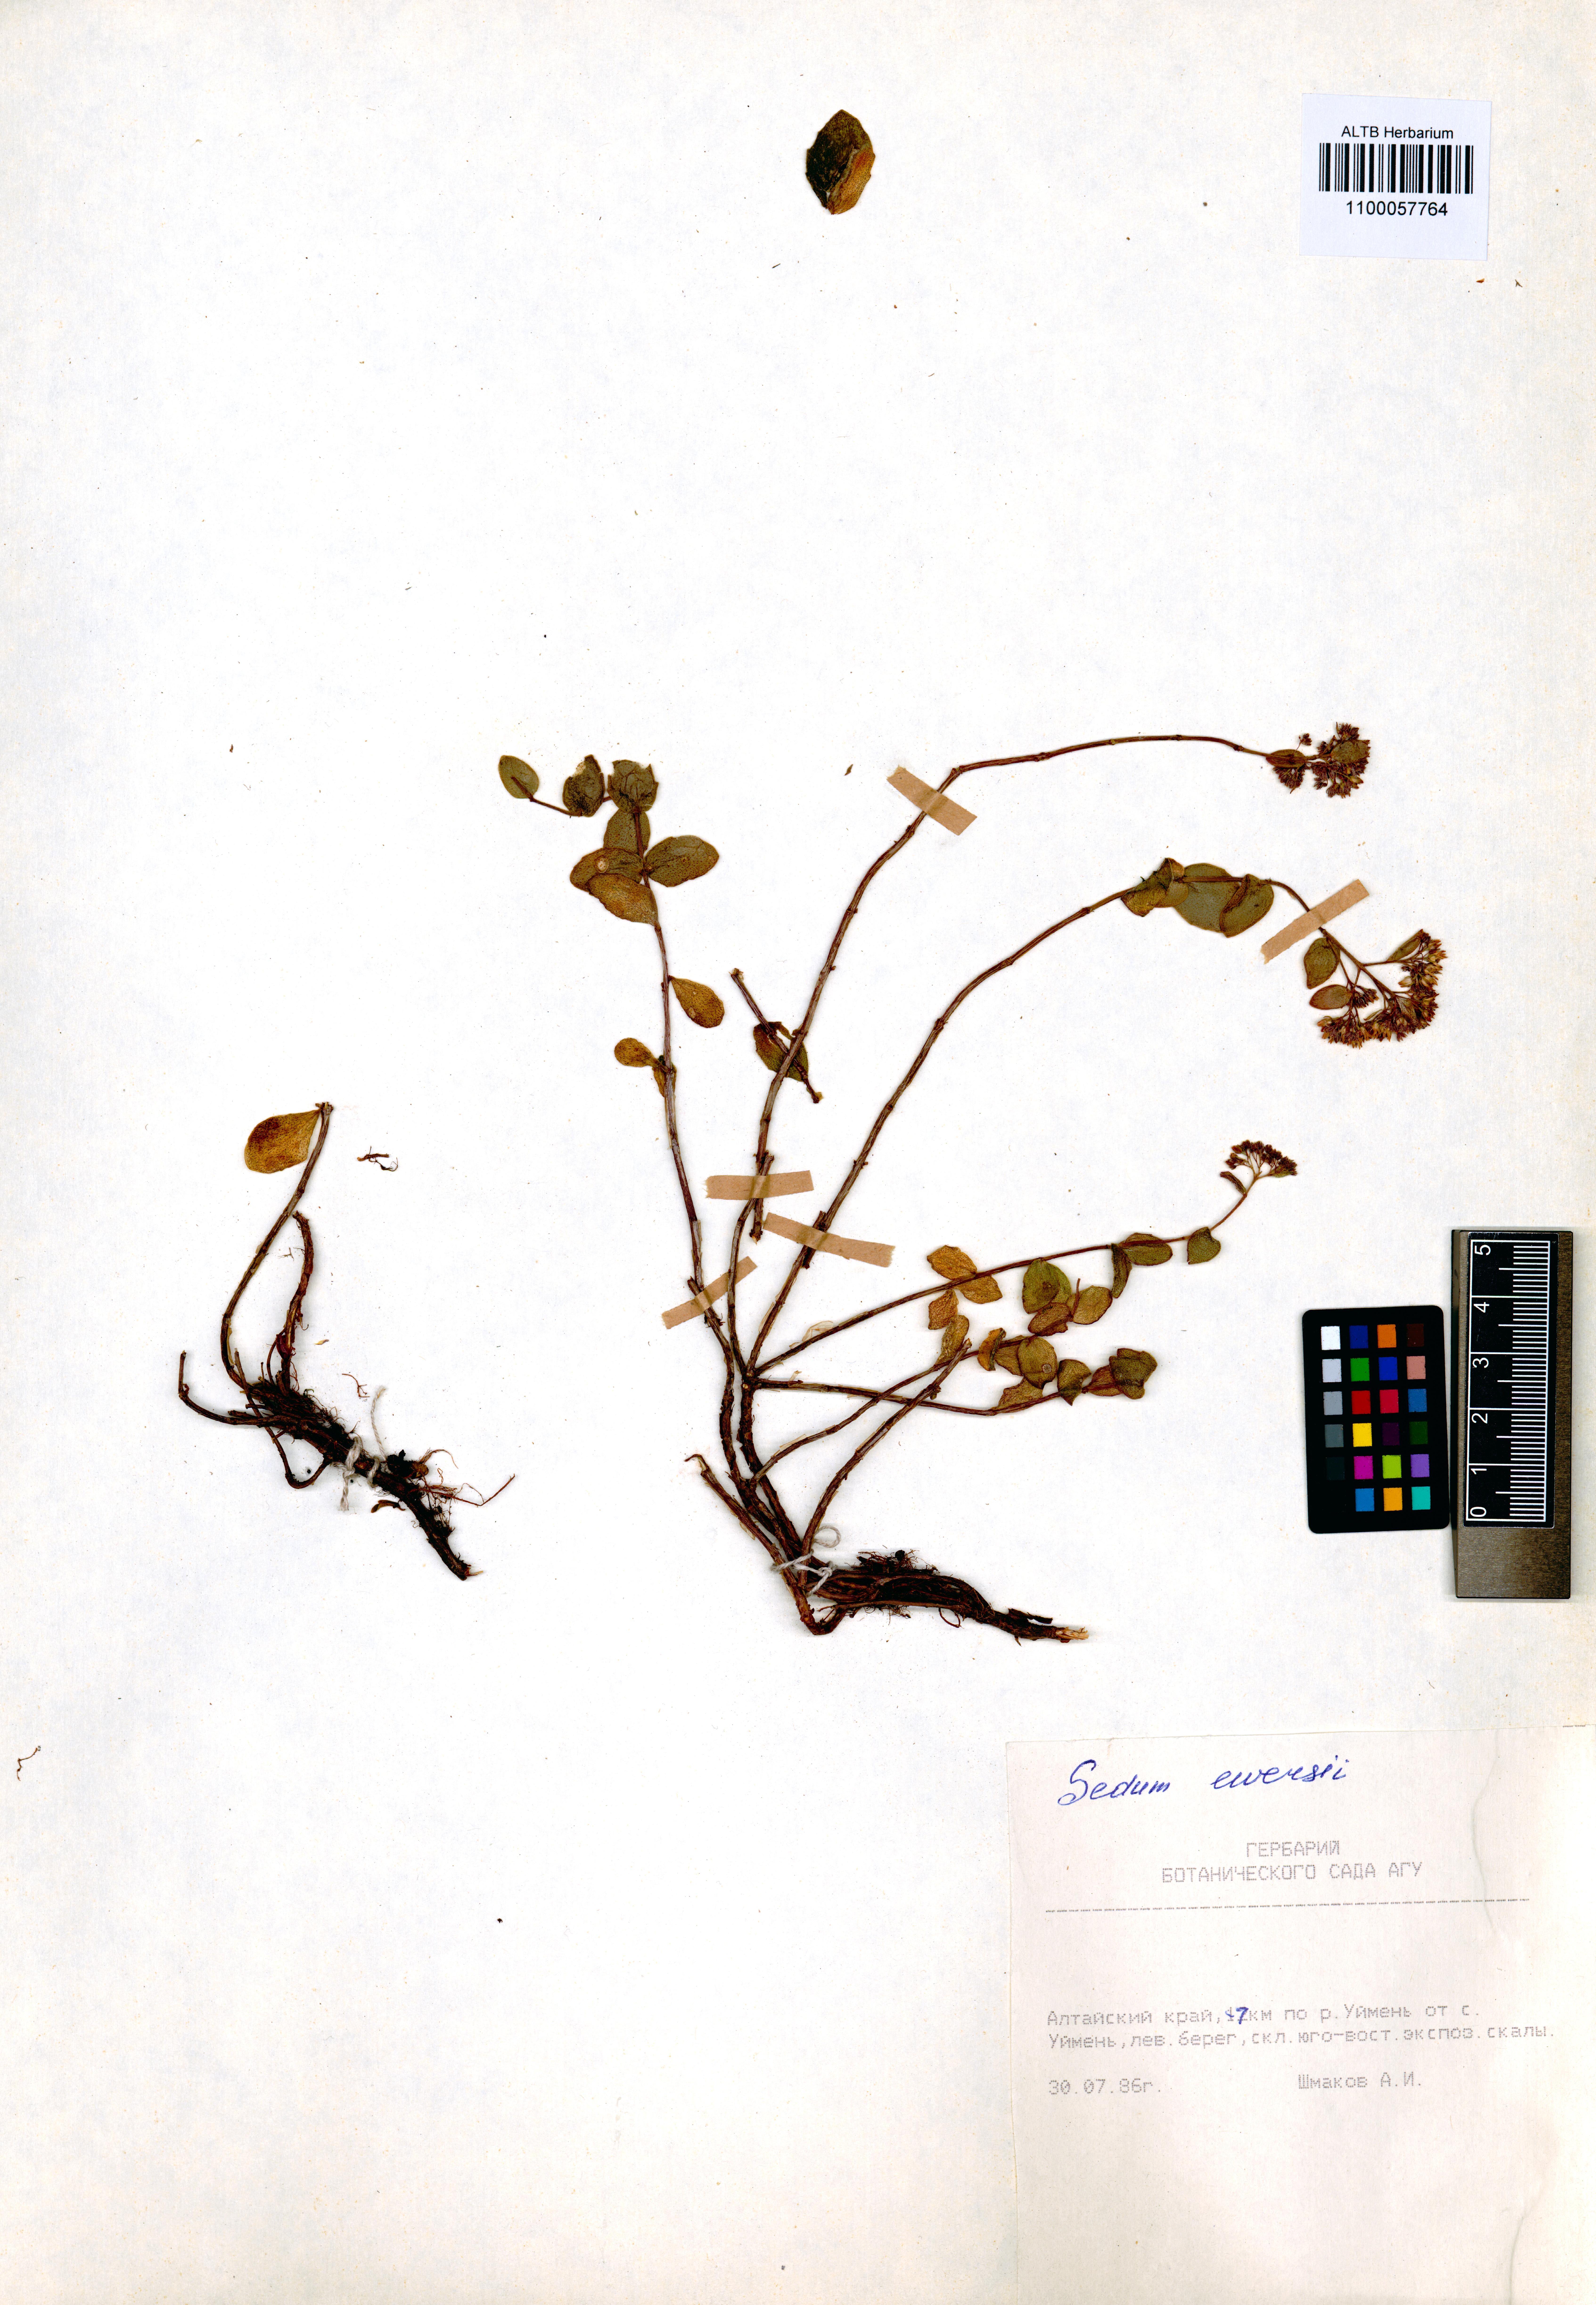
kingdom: Plantae
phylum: Tracheophyta
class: Magnoliopsida
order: Saxifragales
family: Crassulaceae
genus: Hylotelephium
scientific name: Hylotelephium ewersii
